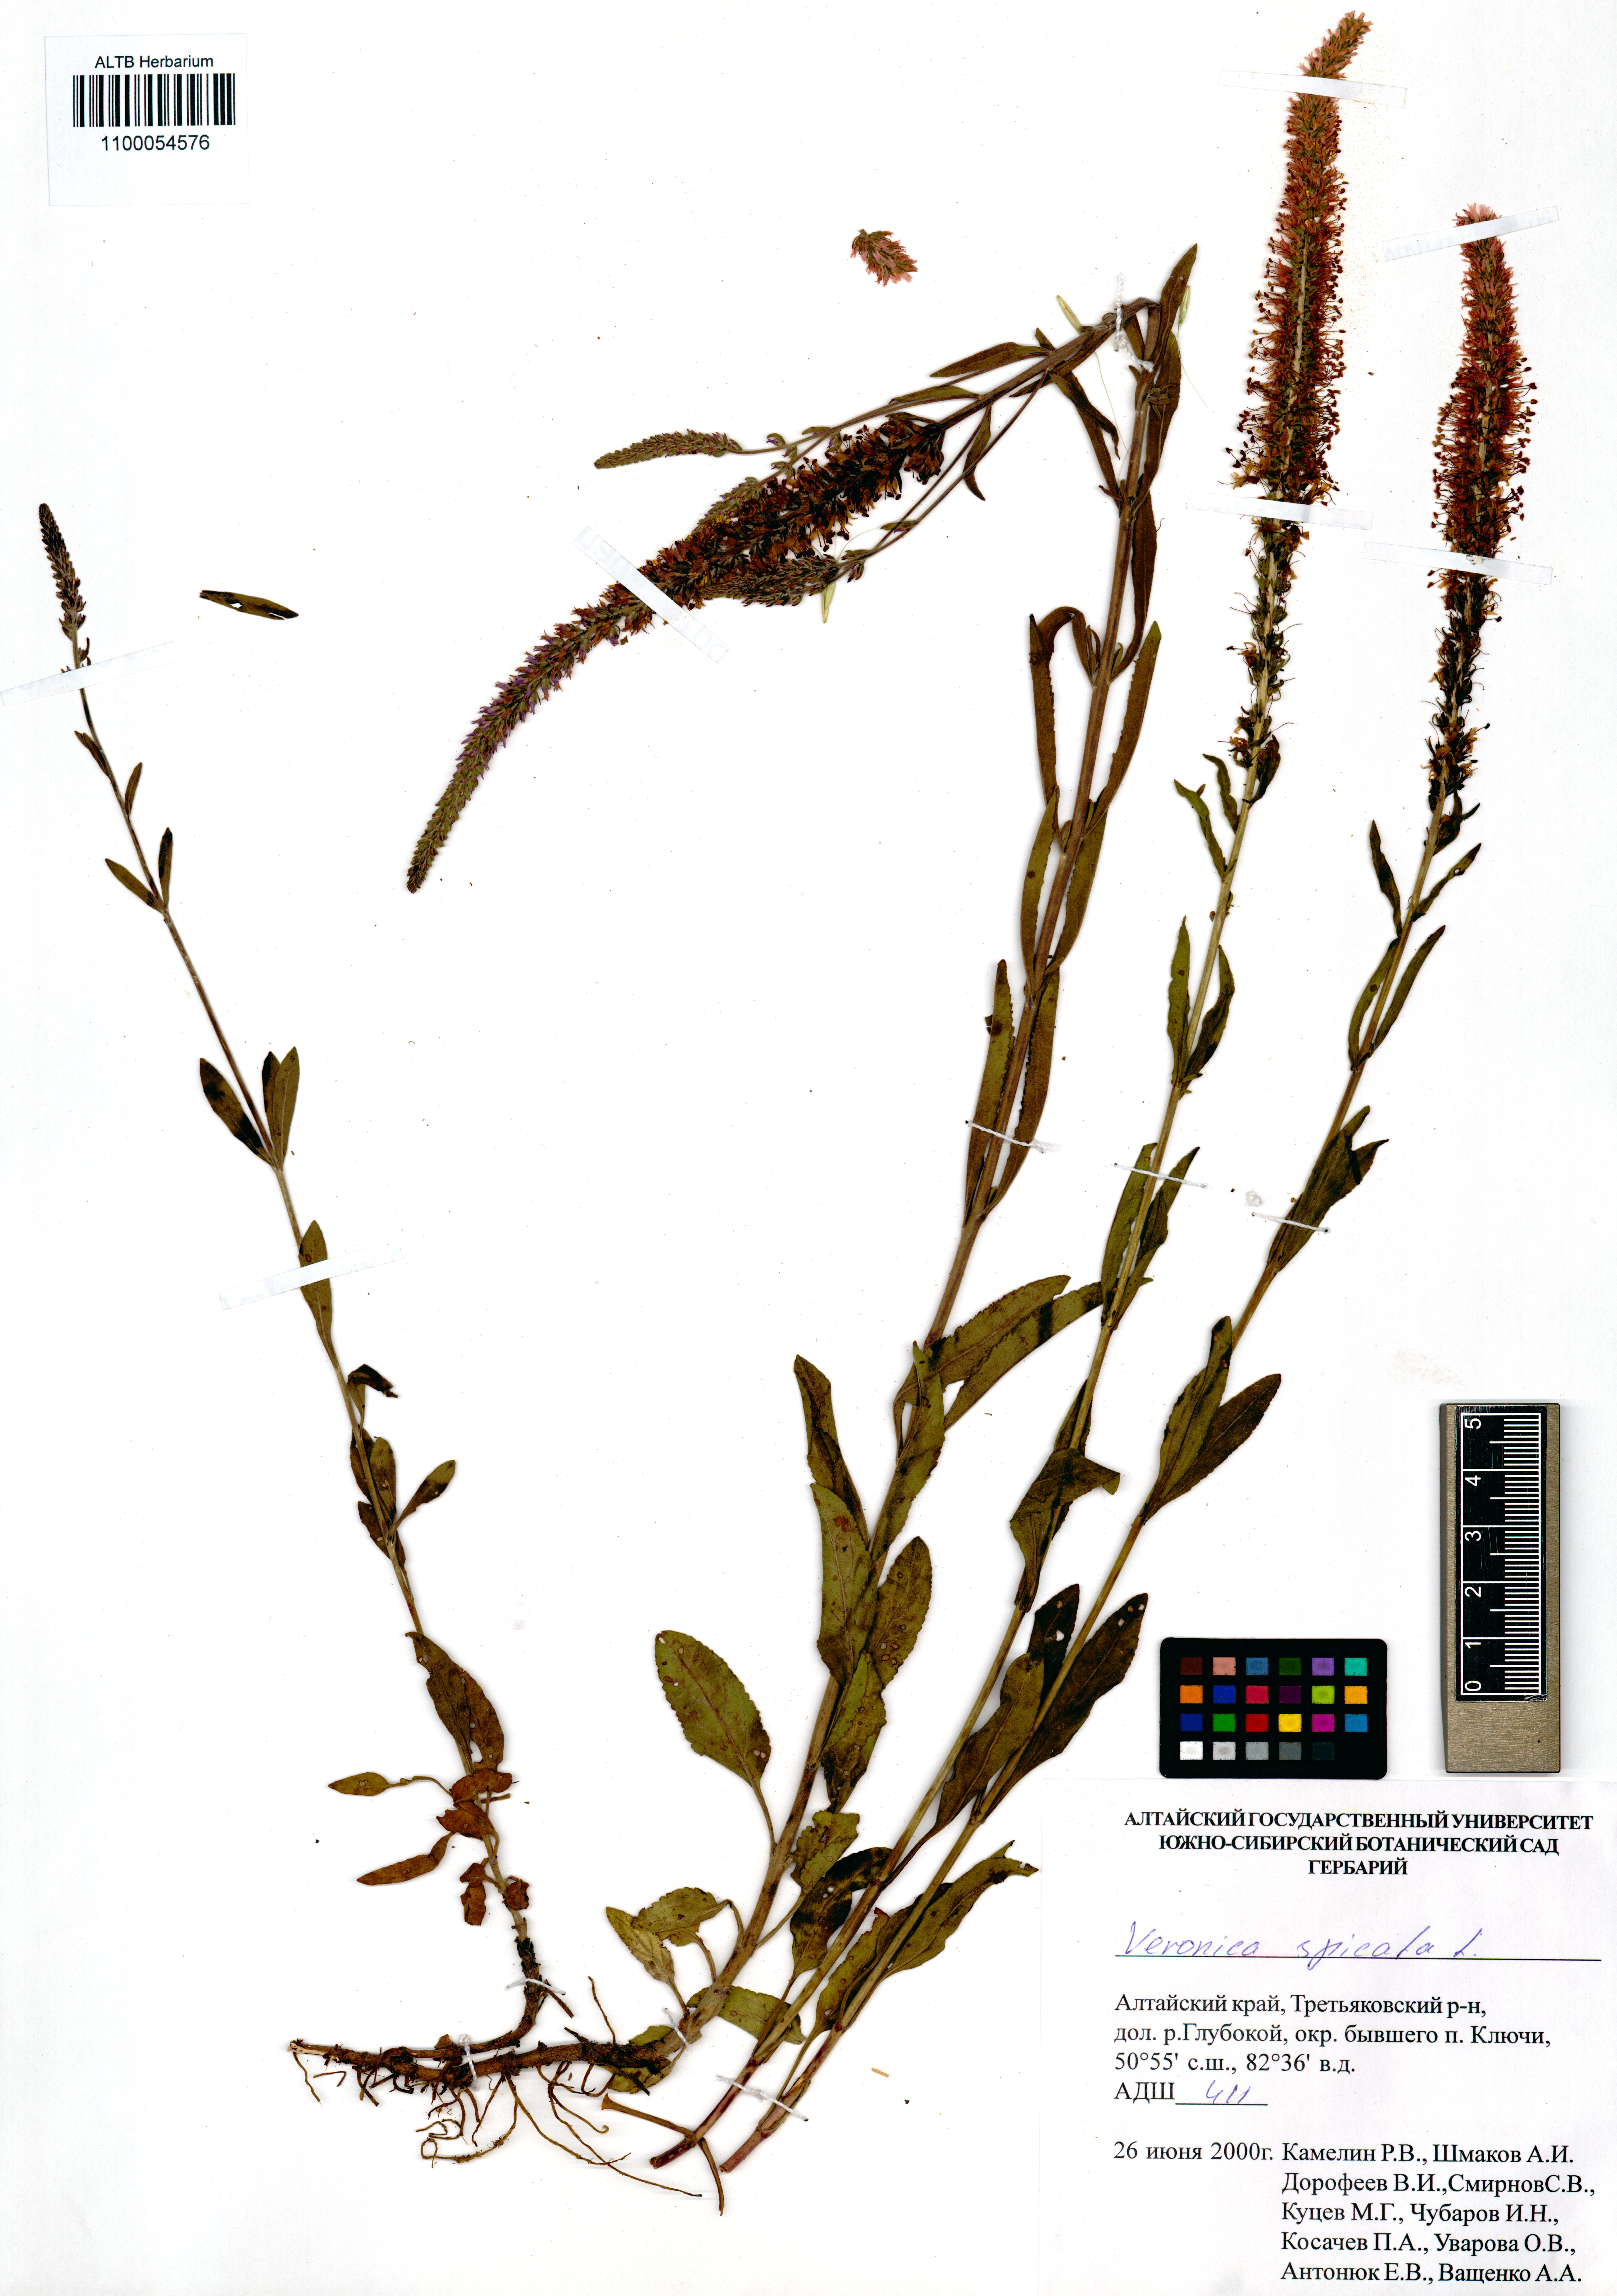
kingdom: Plantae
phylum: Tracheophyta
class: Magnoliopsida
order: Lamiales
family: Plantaginaceae
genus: Veronica
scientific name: Veronica spicata
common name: Spiked speedwell
